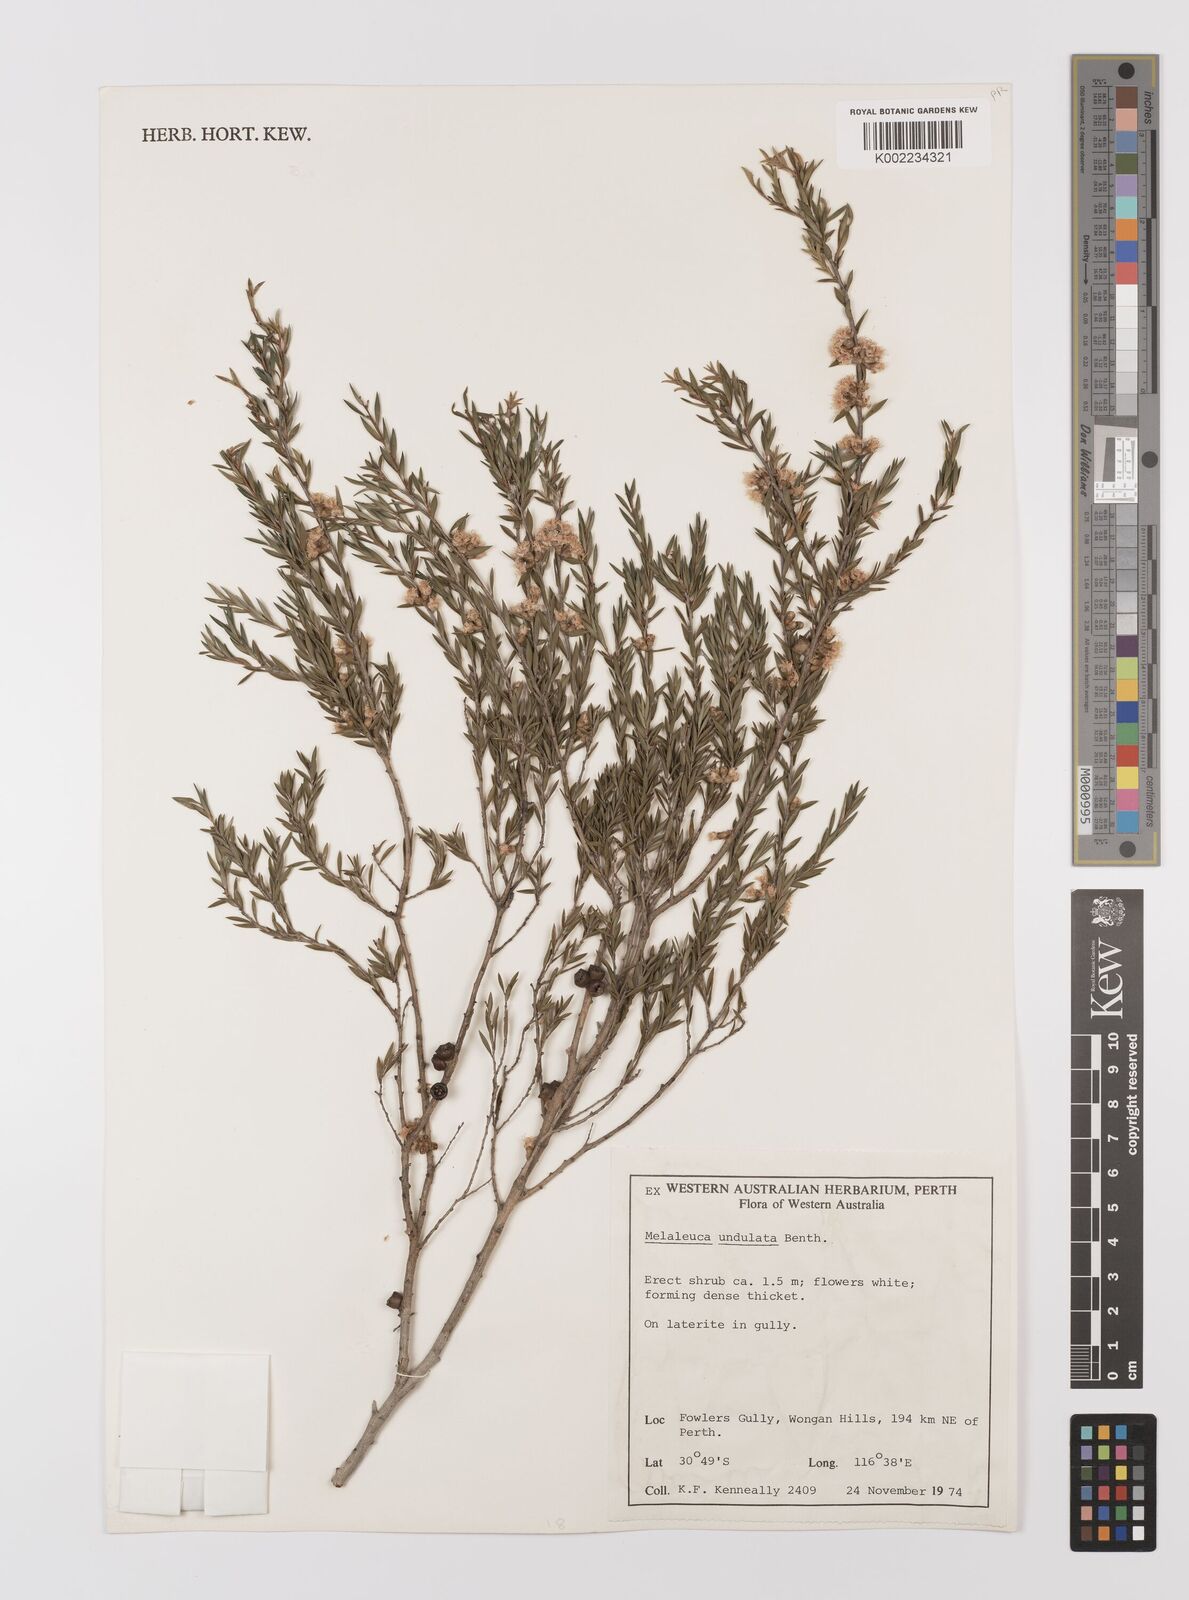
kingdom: Plantae
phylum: Tracheophyta
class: Magnoliopsida
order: Myrtales
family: Myrtaceae
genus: Melaleuca
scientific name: Melaleuca undulata
